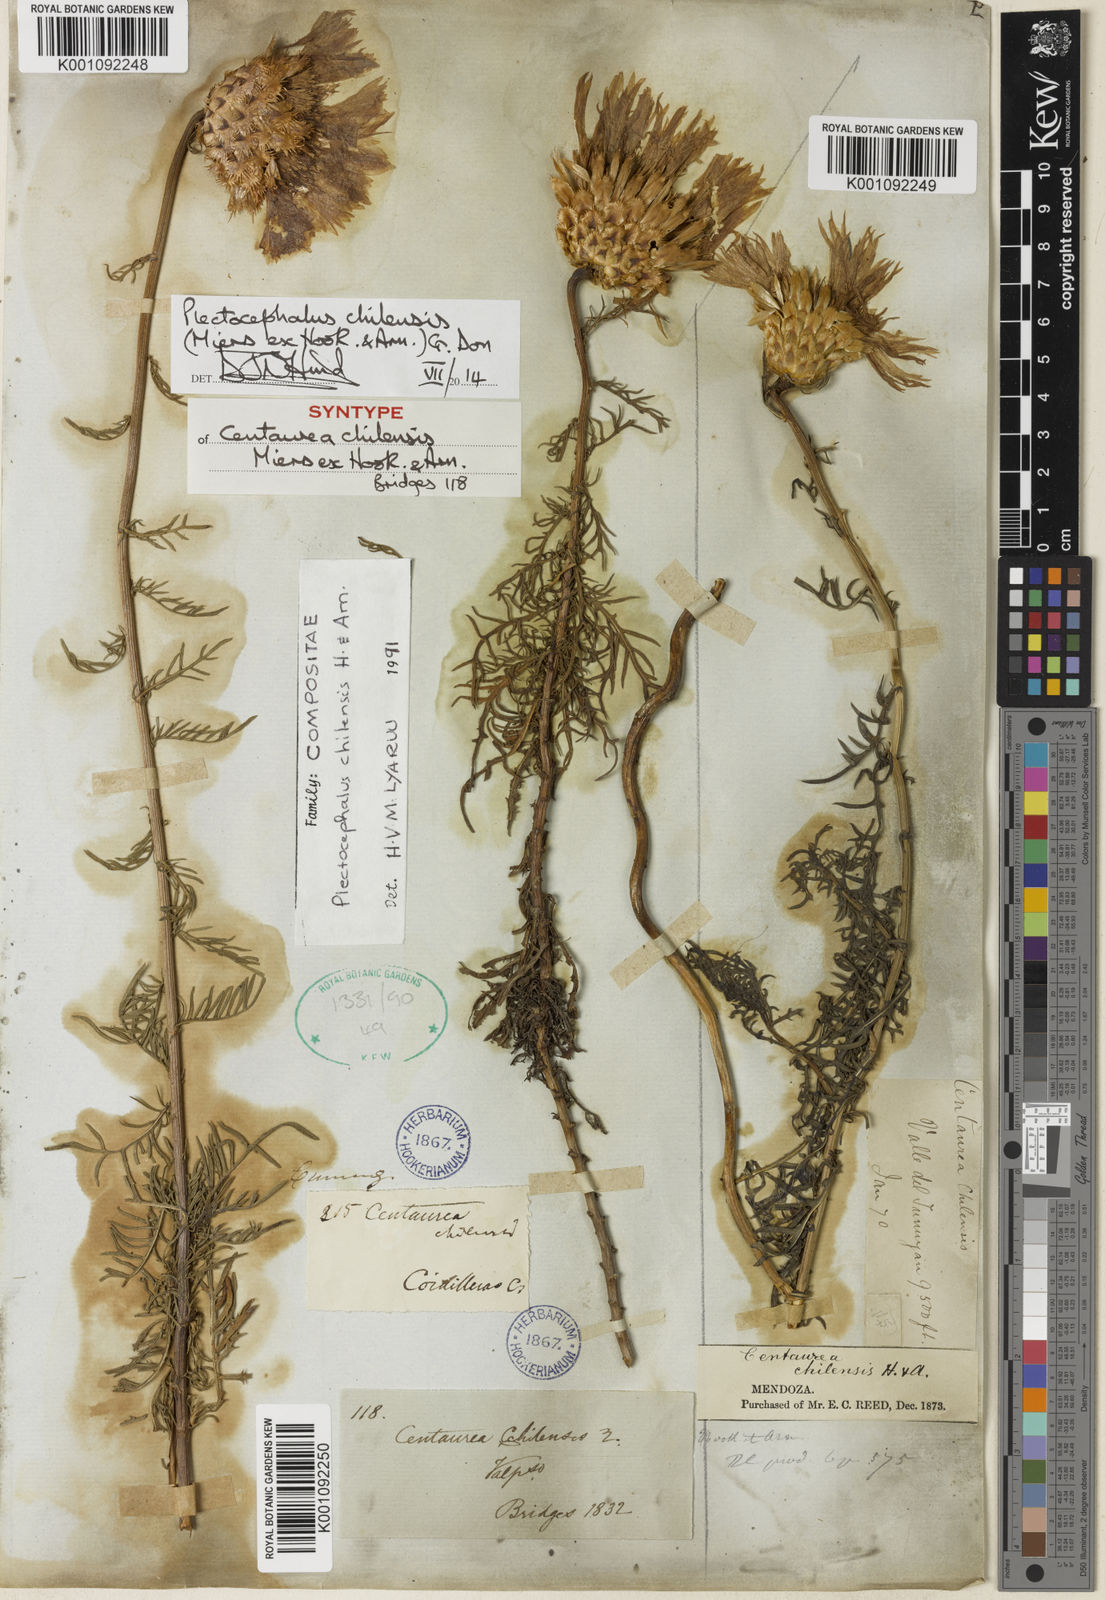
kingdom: Plantae
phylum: Tracheophyta
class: Magnoliopsida
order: Asterales
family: Asteraceae
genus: Plectocephalus
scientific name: Plectocephalus chilensis
